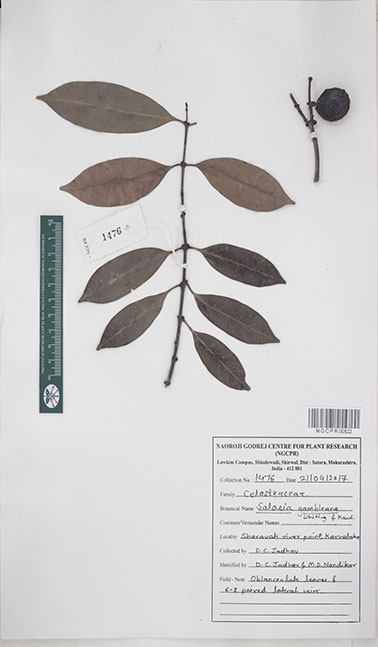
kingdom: Plantae
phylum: Tracheophyta
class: Magnoliopsida
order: Celastrales
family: Celastraceae
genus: Salacia
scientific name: Salacia gambleana
